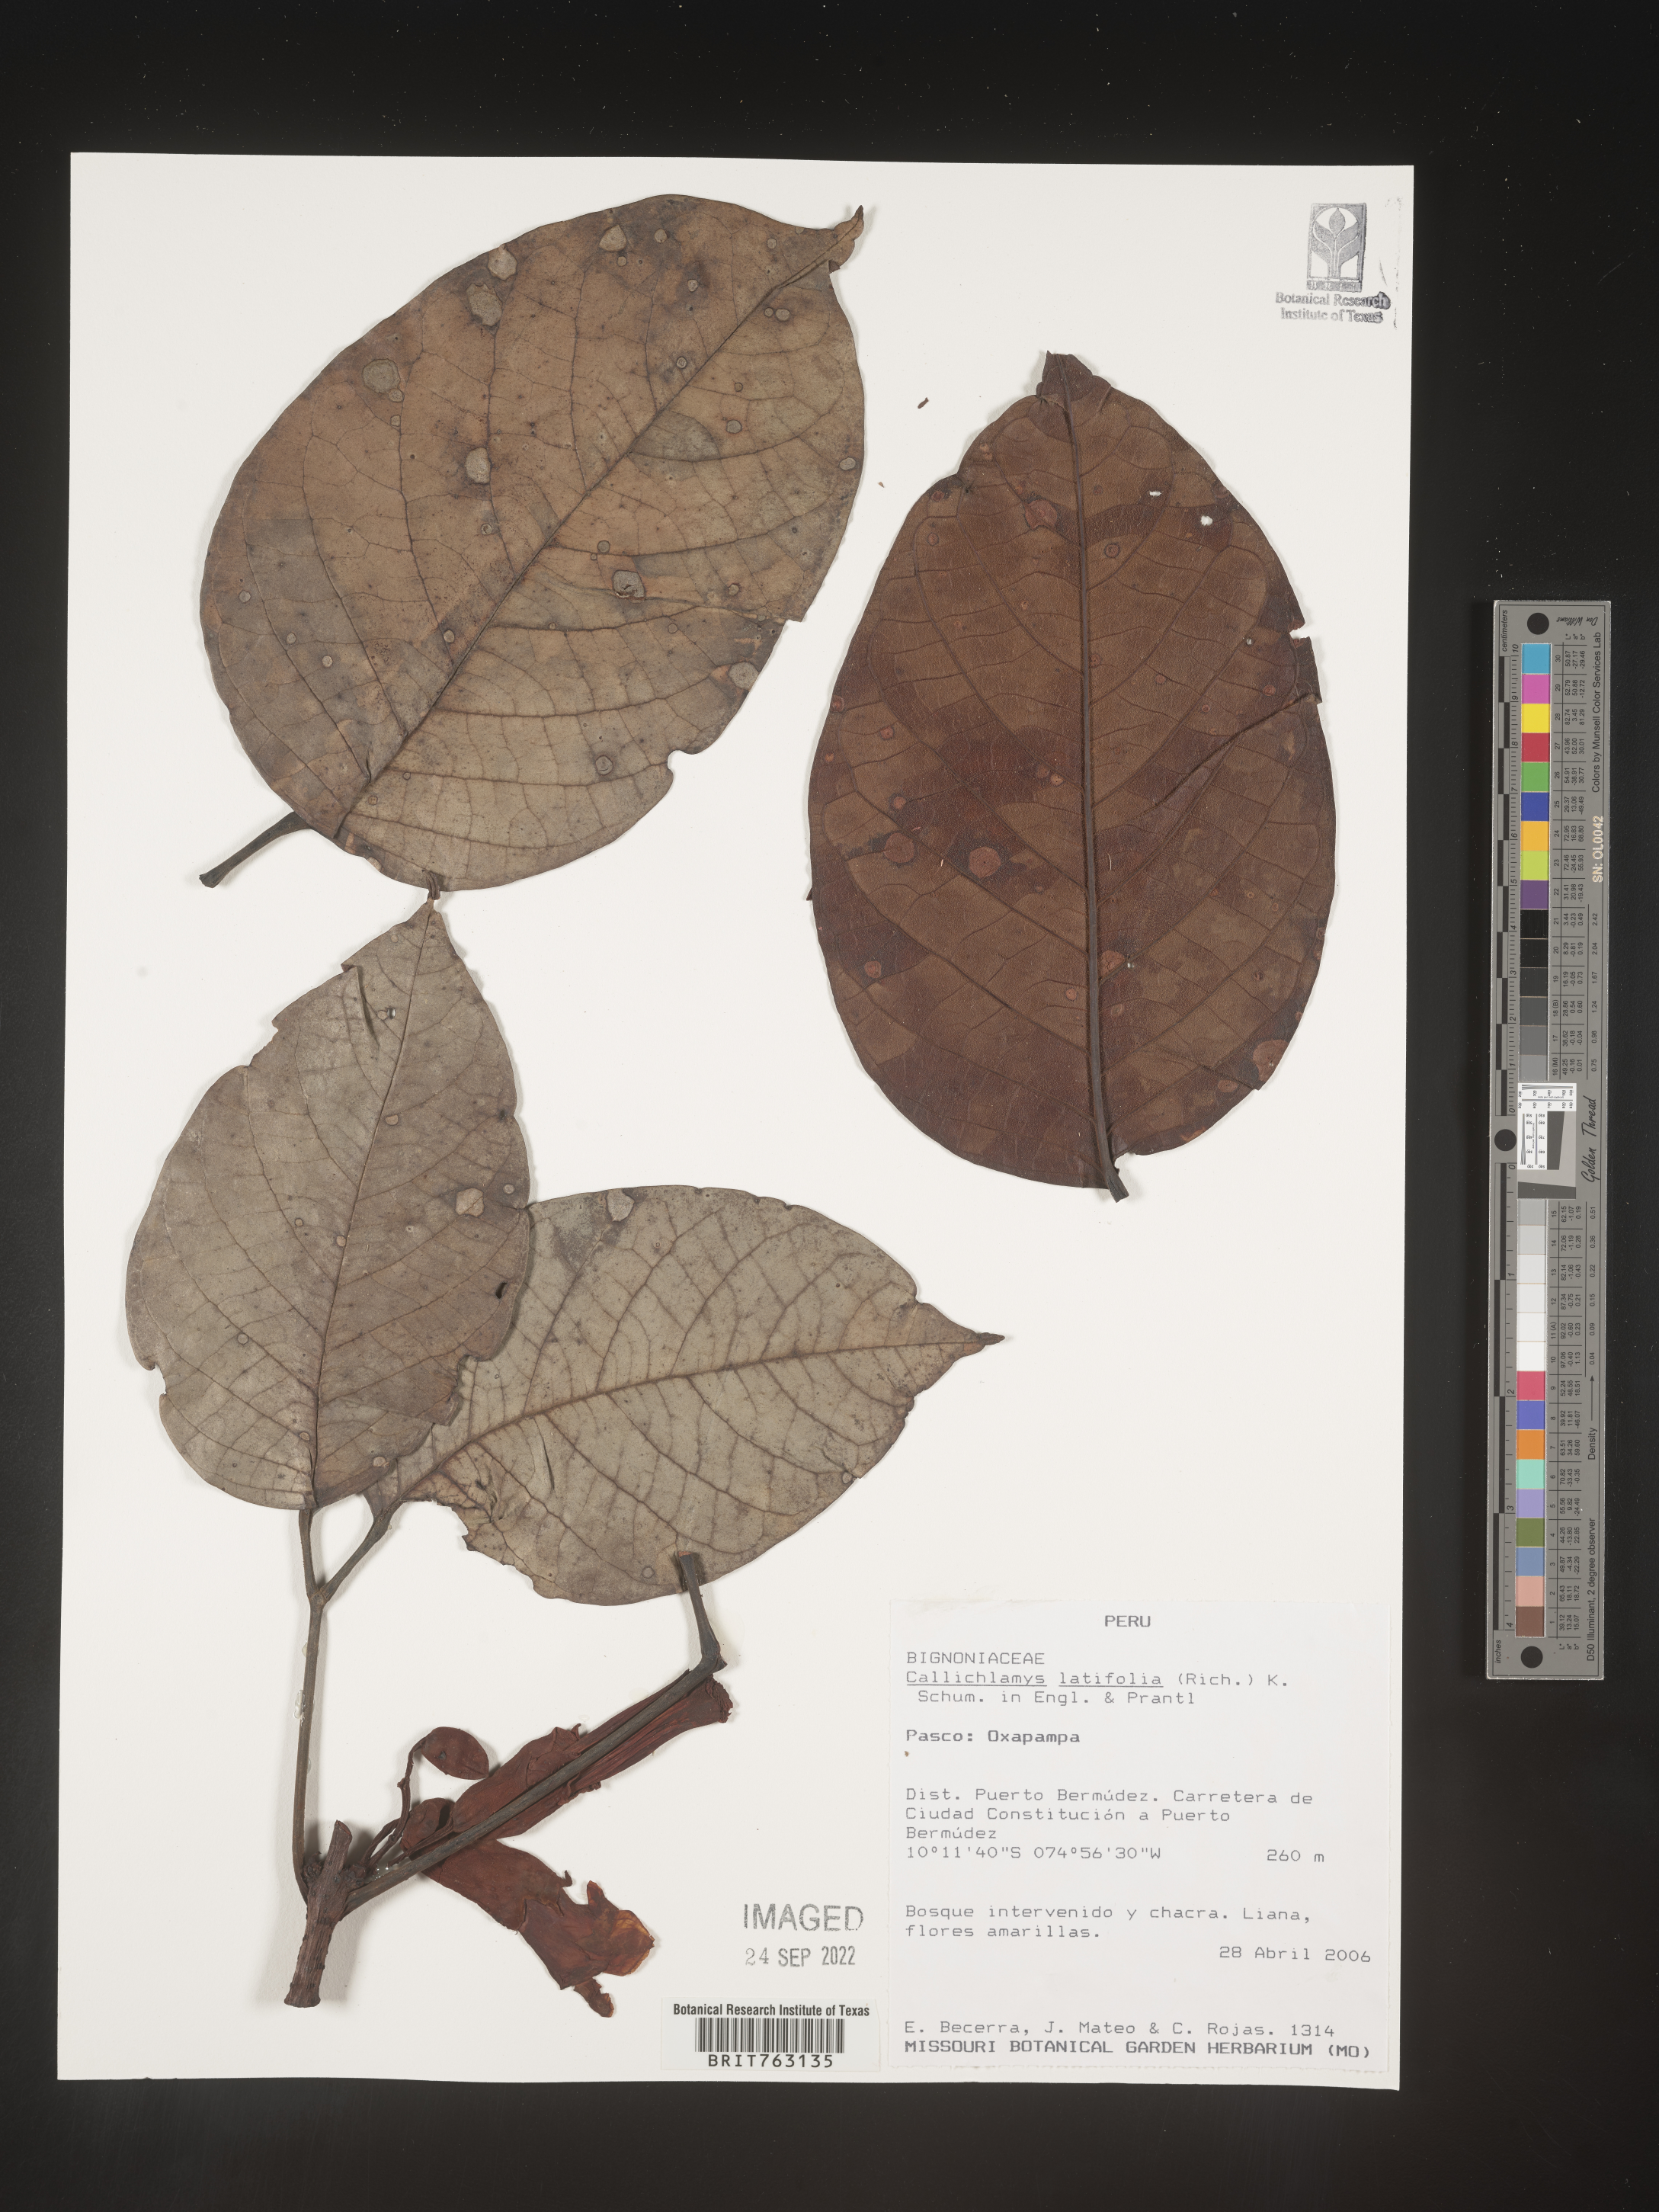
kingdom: Plantae
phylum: Tracheophyta
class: Magnoliopsida
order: Lamiales
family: Bignoniaceae
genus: Callichlamys
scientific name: Callichlamys
